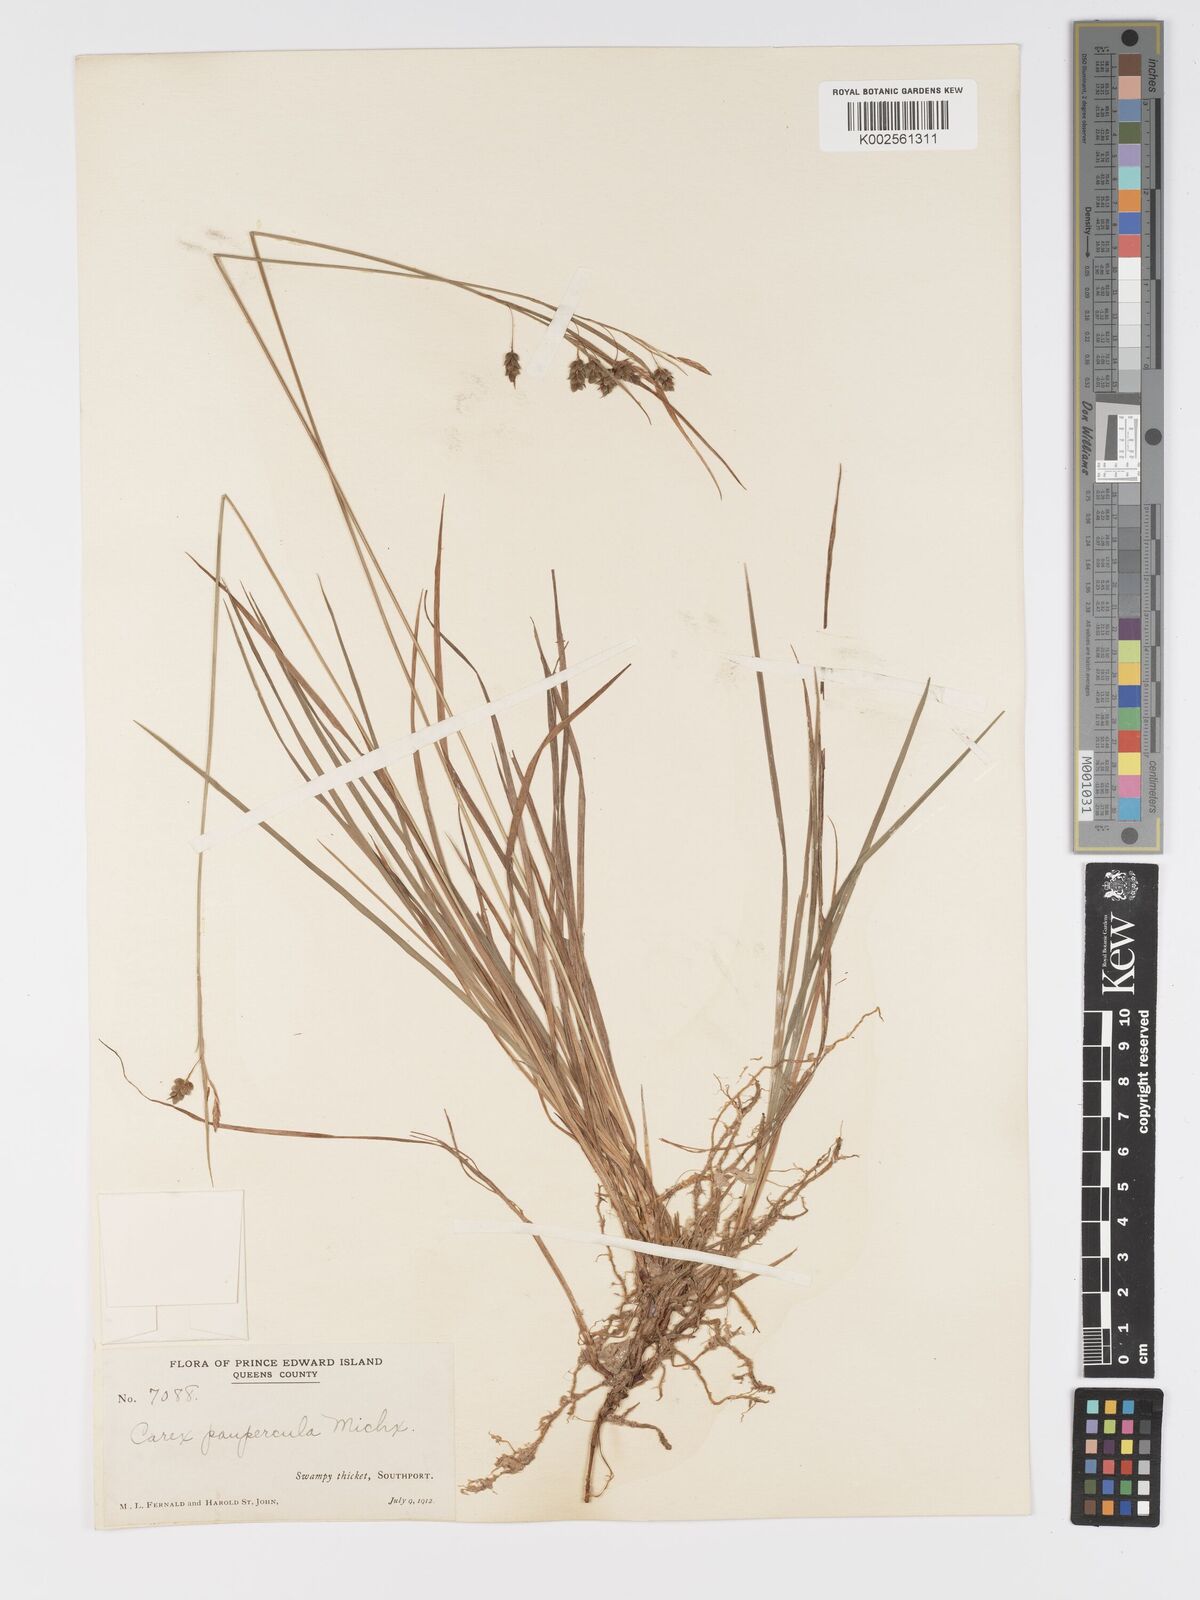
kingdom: Plantae
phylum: Tracheophyta
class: Liliopsida
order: Poales
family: Cyperaceae
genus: Carex
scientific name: Carex magellanica
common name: Bog sedge
